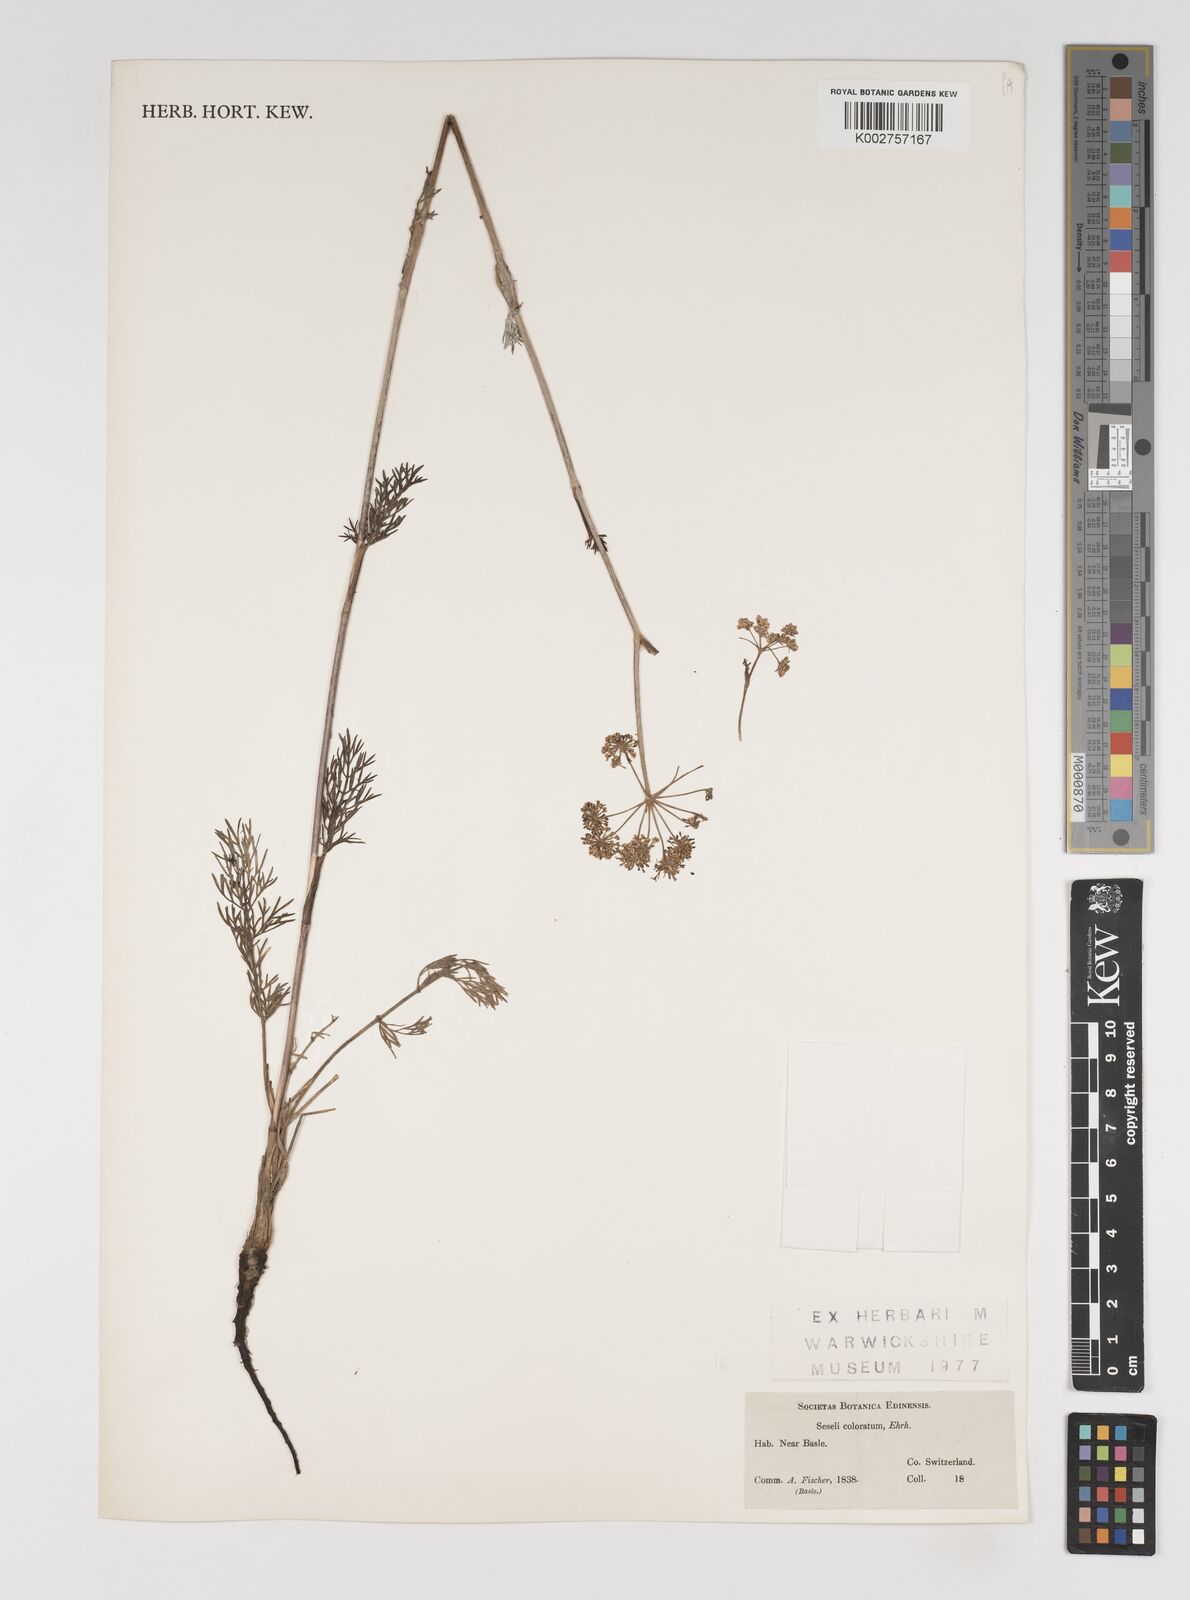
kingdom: Plantae
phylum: Tracheophyta
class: Magnoliopsida
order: Apiales
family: Apiaceae
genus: Seseli
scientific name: Seseli annuum
